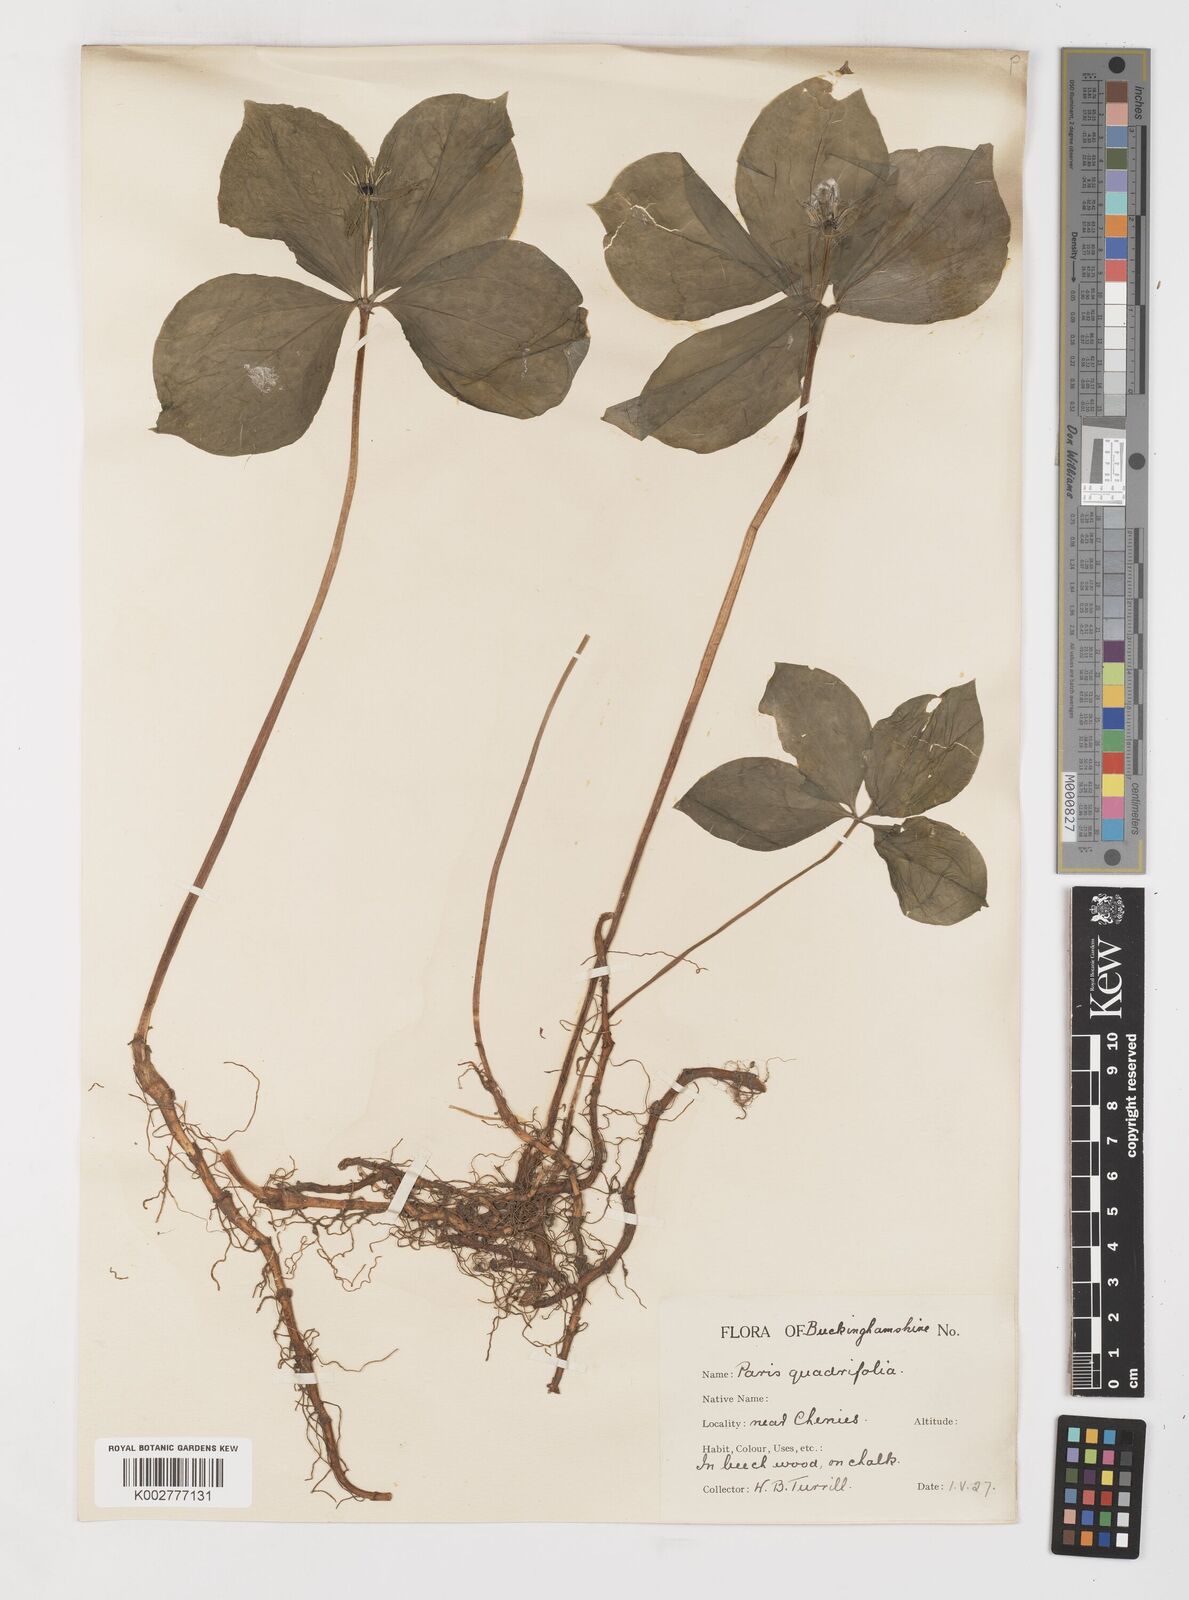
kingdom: Plantae
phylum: Tracheophyta
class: Liliopsida
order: Liliales
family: Melanthiaceae
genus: Paris
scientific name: Paris quadrifolia
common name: Herb-paris
